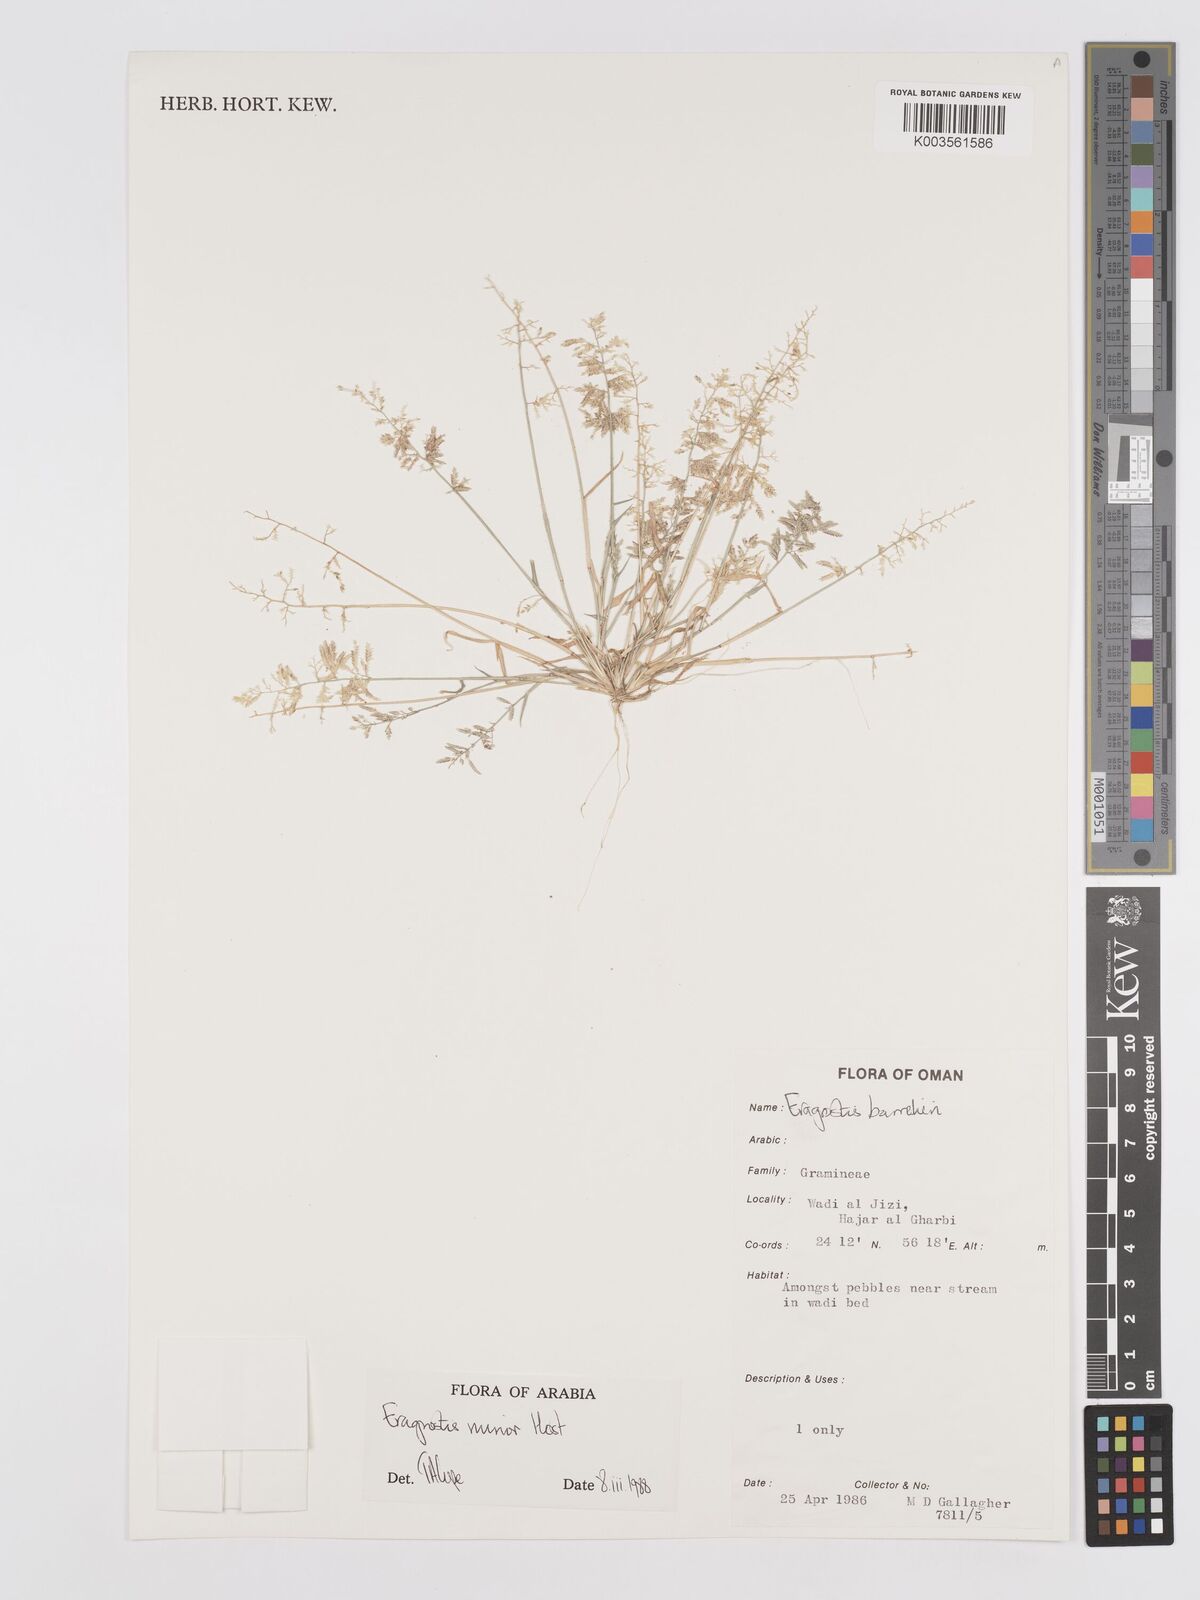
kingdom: Plantae
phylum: Tracheophyta
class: Liliopsida
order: Poales
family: Poaceae
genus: Eragrostis
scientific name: Eragrostis minor
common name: Small love-grass
